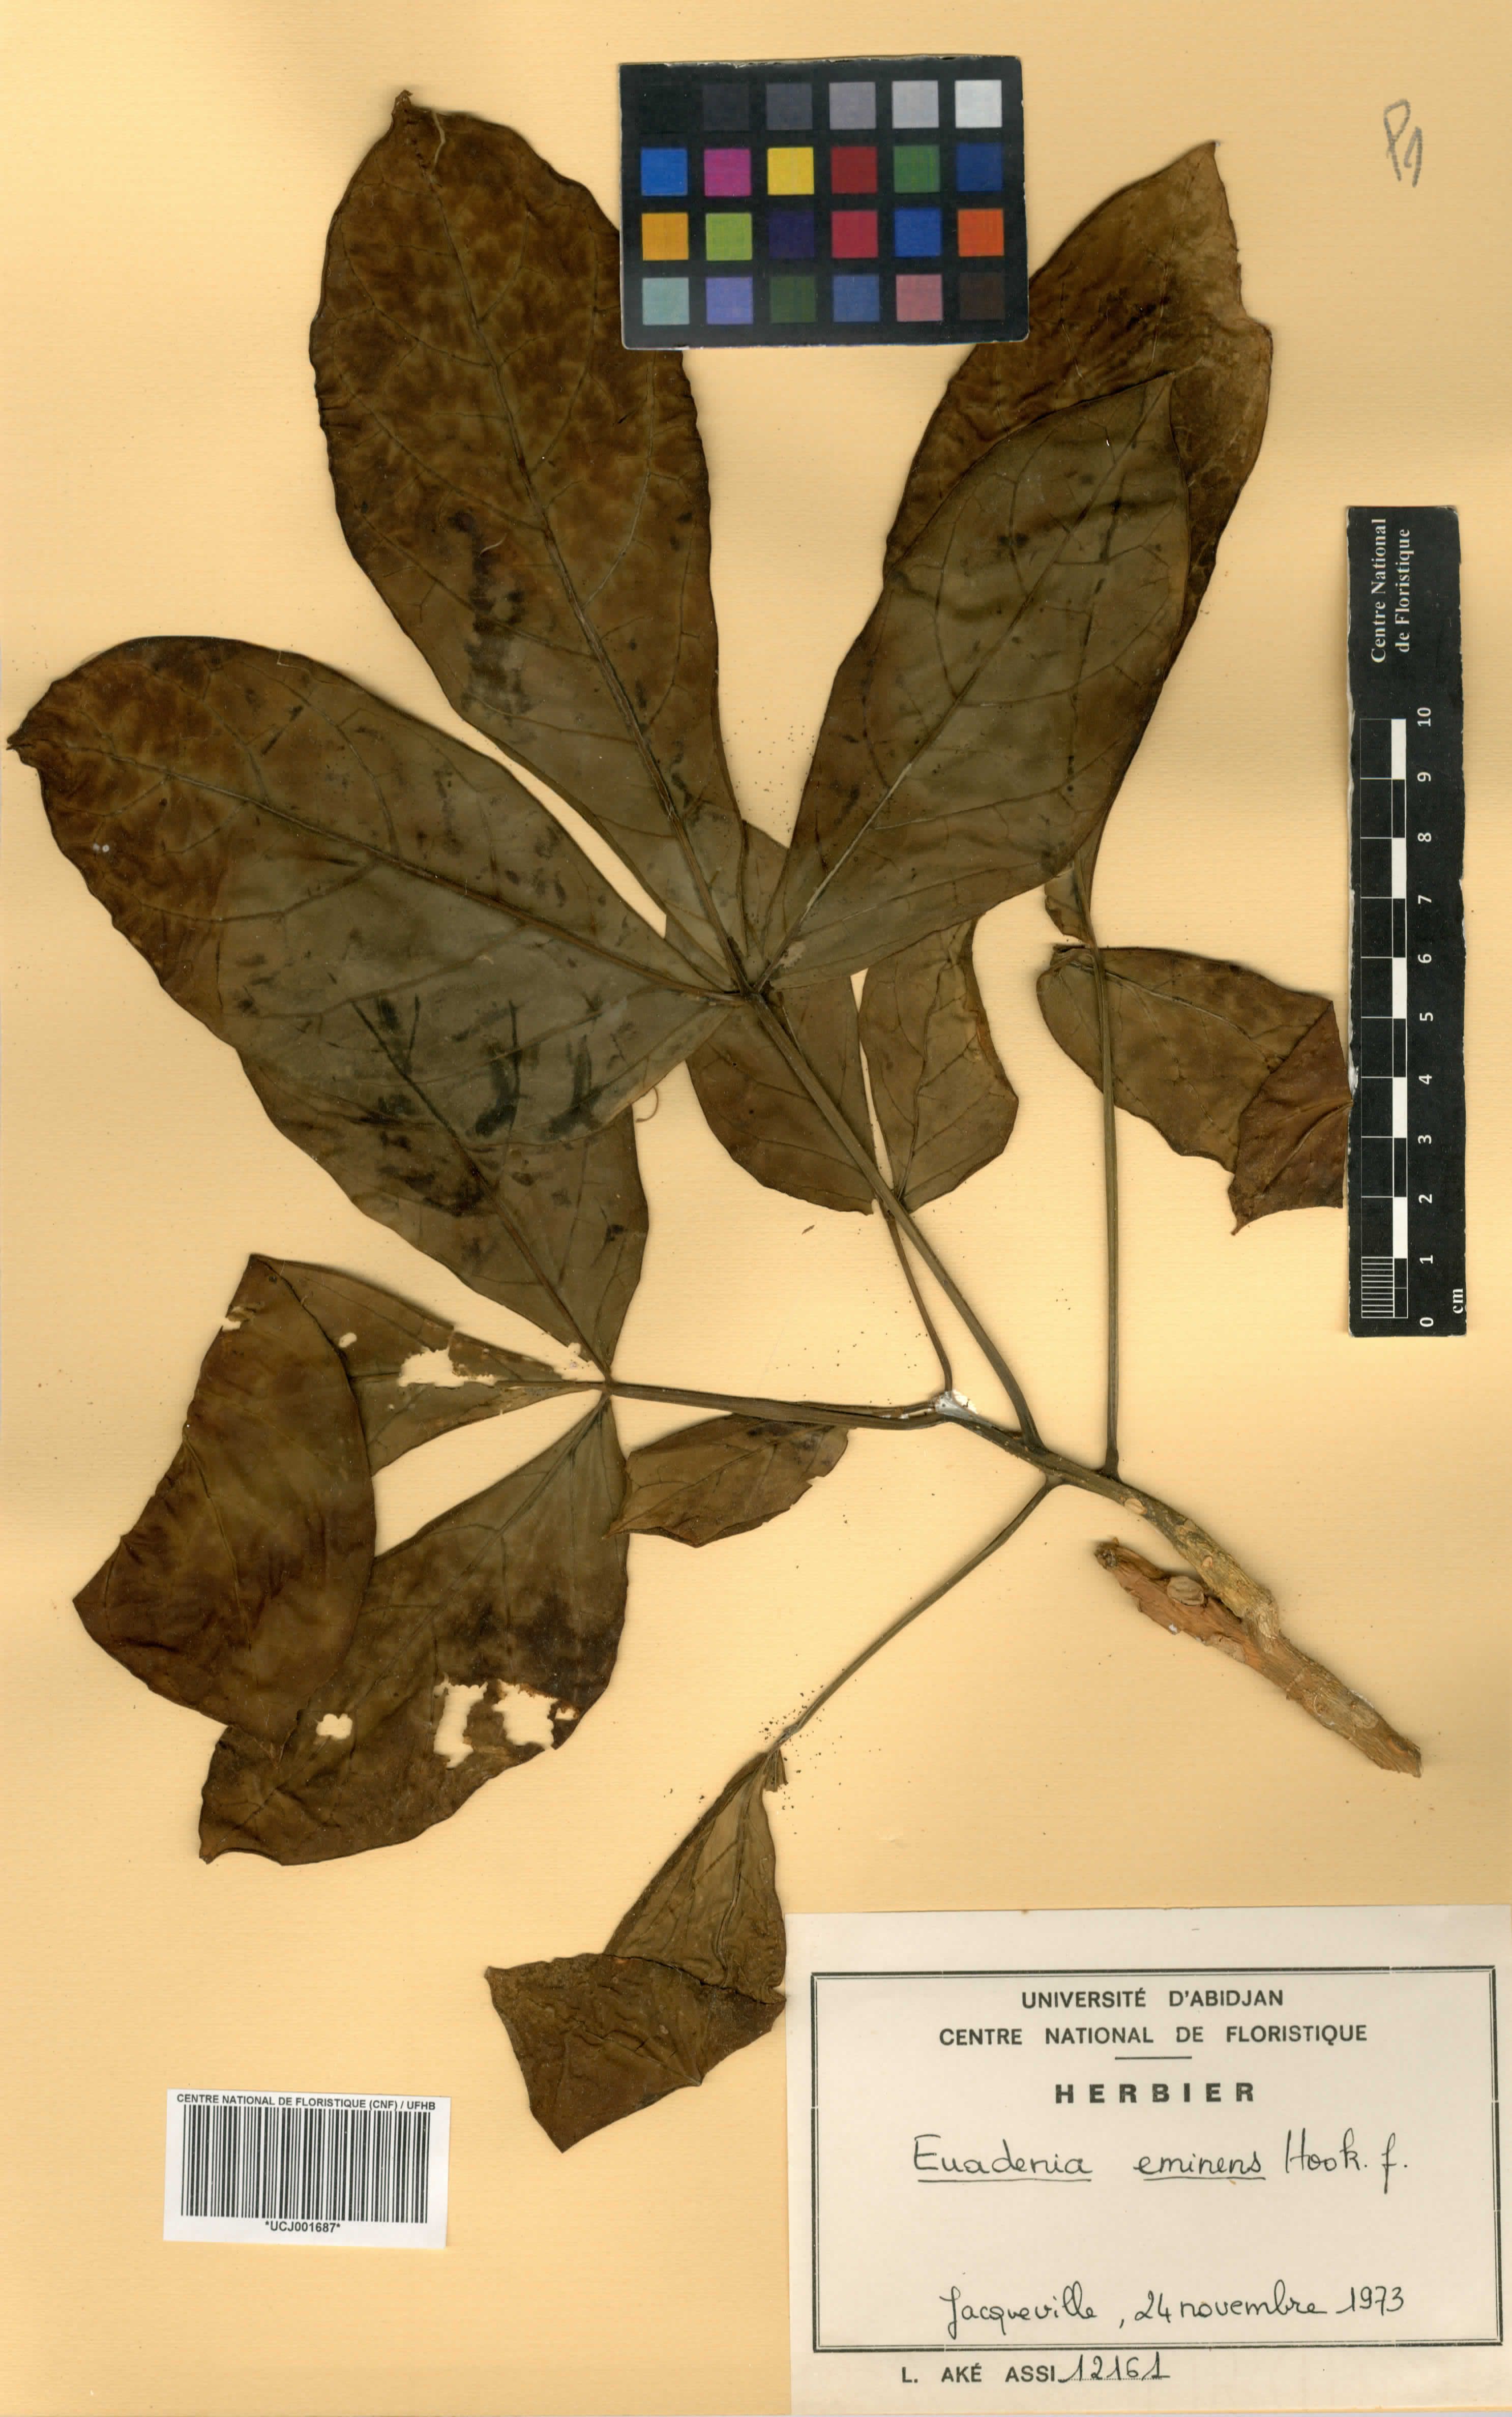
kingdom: Plantae
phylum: Tracheophyta
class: Magnoliopsida
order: Brassicales
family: Capparaceae
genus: Euadenia
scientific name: Euadenia eminens
